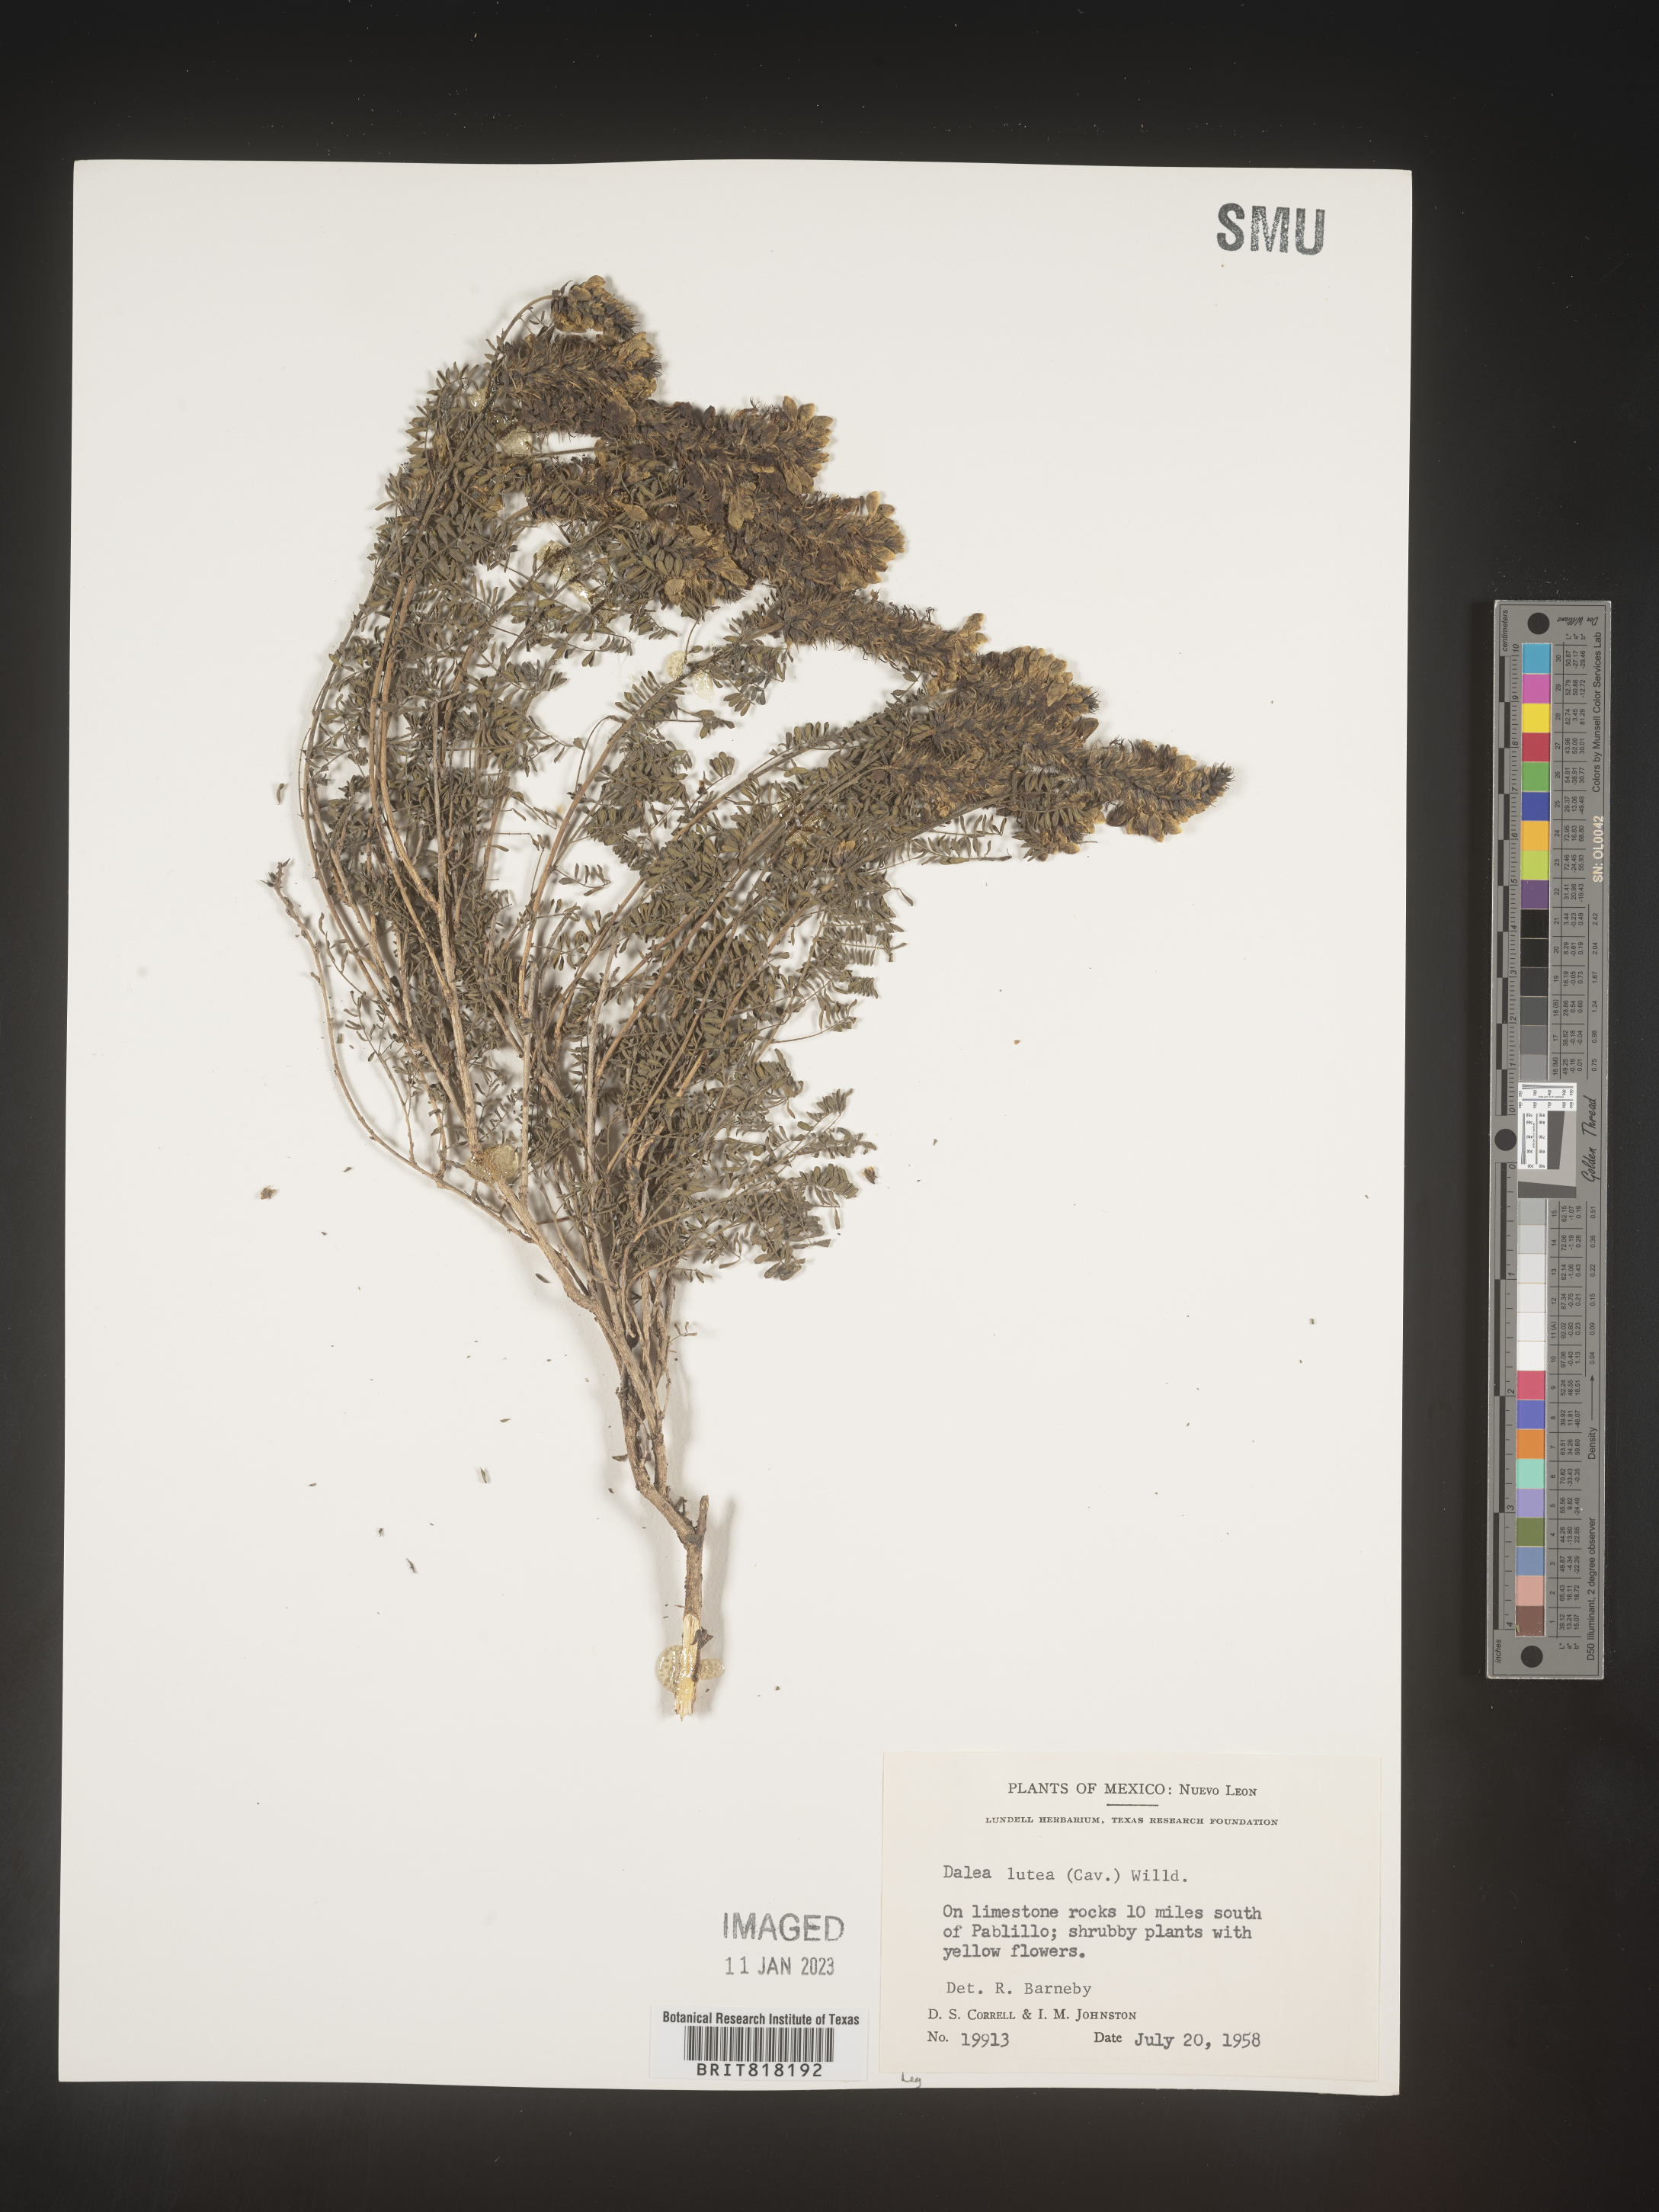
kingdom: Plantae
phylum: Tracheophyta
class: Magnoliopsida
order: Fabales
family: Fabaceae
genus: Dalea
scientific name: Dalea
